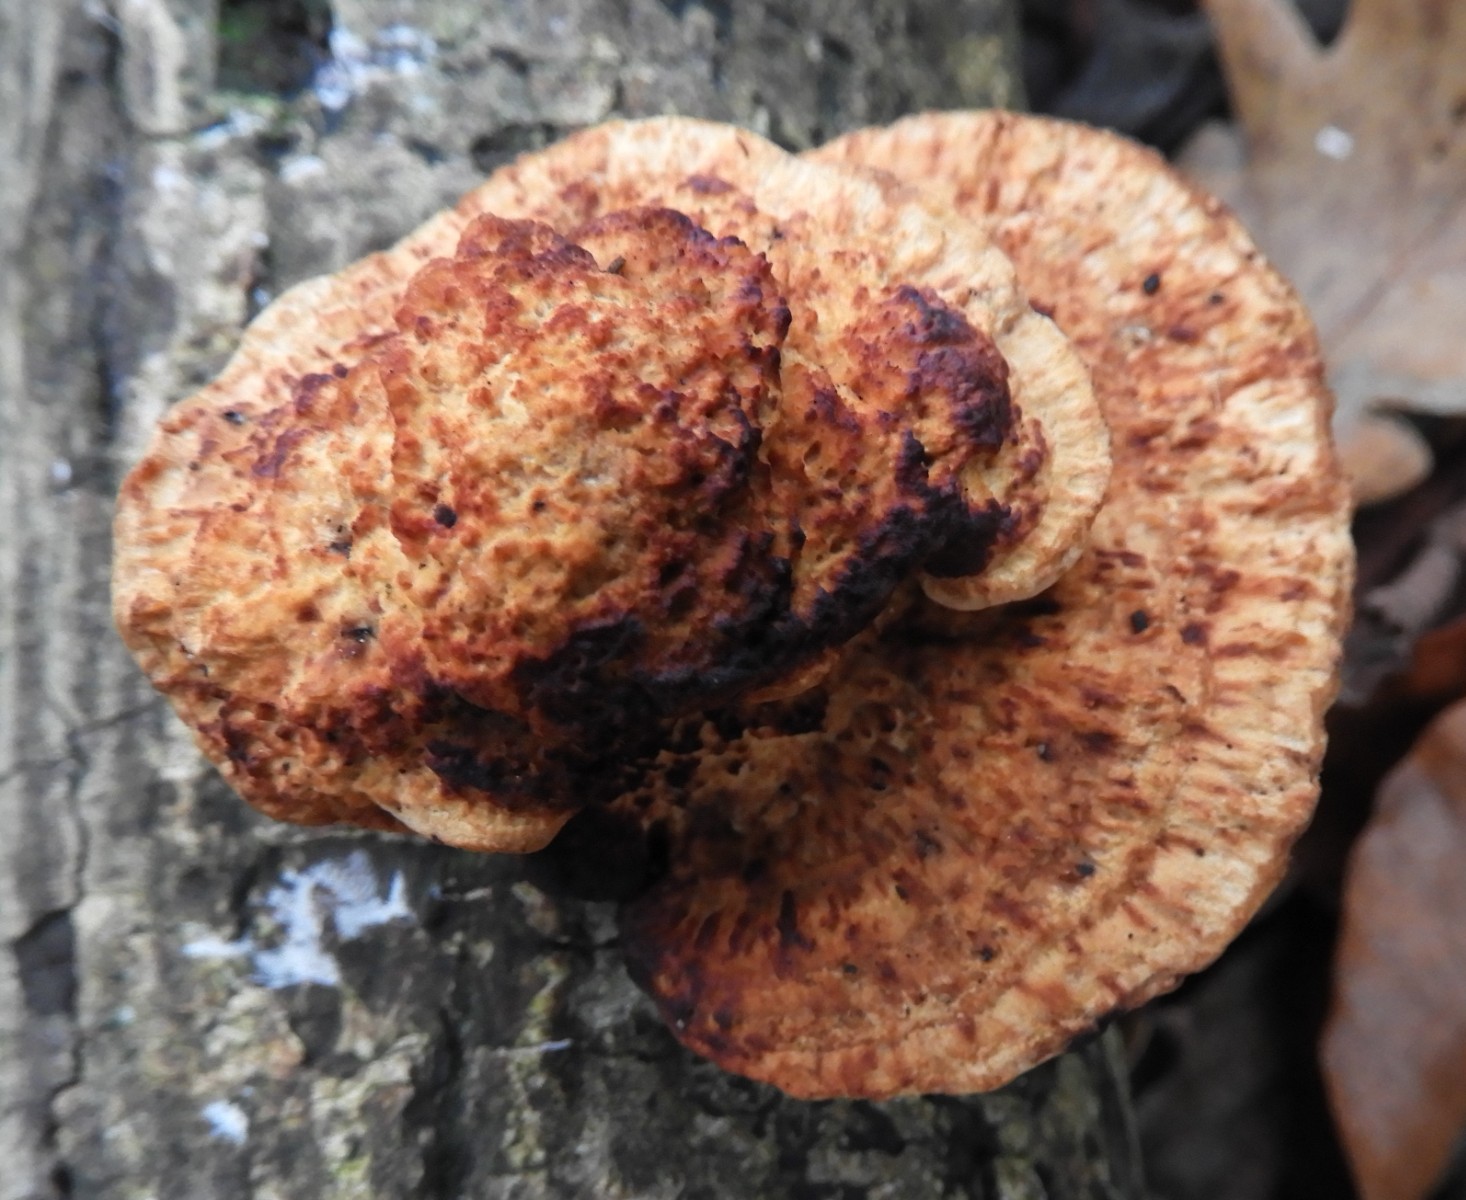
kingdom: Fungi
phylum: Basidiomycota
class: Agaricomycetes
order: Polyporales
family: Polyporaceae
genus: Daedaleopsis
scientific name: Daedaleopsis confragosa
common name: rødmende læderporesvamp
